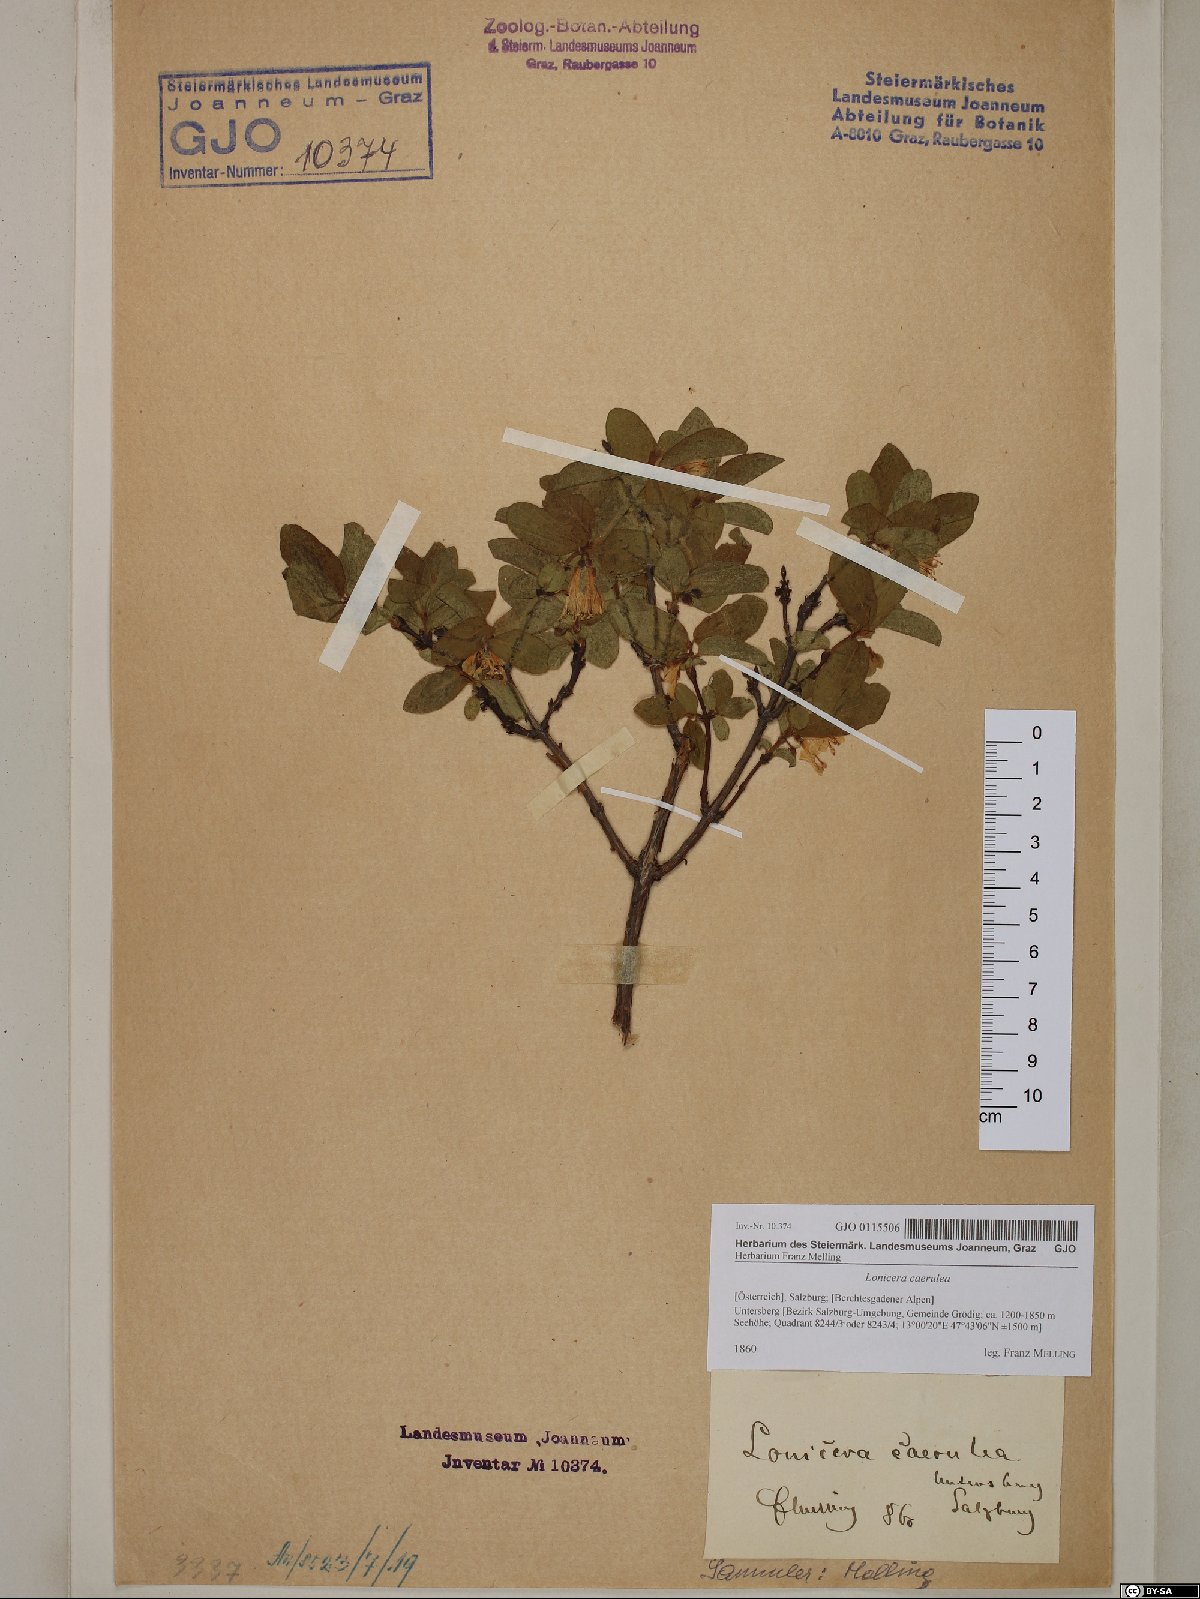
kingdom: Plantae
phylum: Tracheophyta
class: Magnoliopsida
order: Dipsacales
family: Caprifoliaceae
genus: Lonicera
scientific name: Lonicera caerulea
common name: Blue honeysuckle
